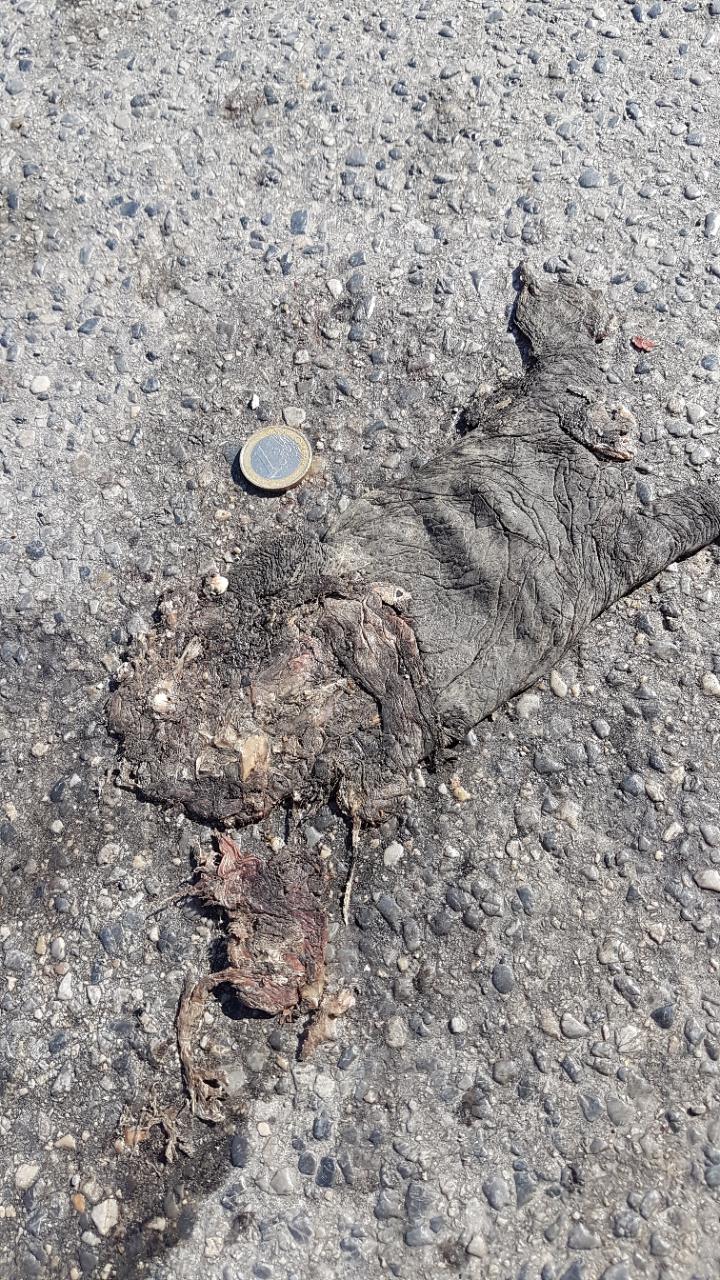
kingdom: Animalia
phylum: Chordata
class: Amphibia
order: Anura
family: Bufonidae
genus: Bufo
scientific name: Bufo bufo
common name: Common toad
